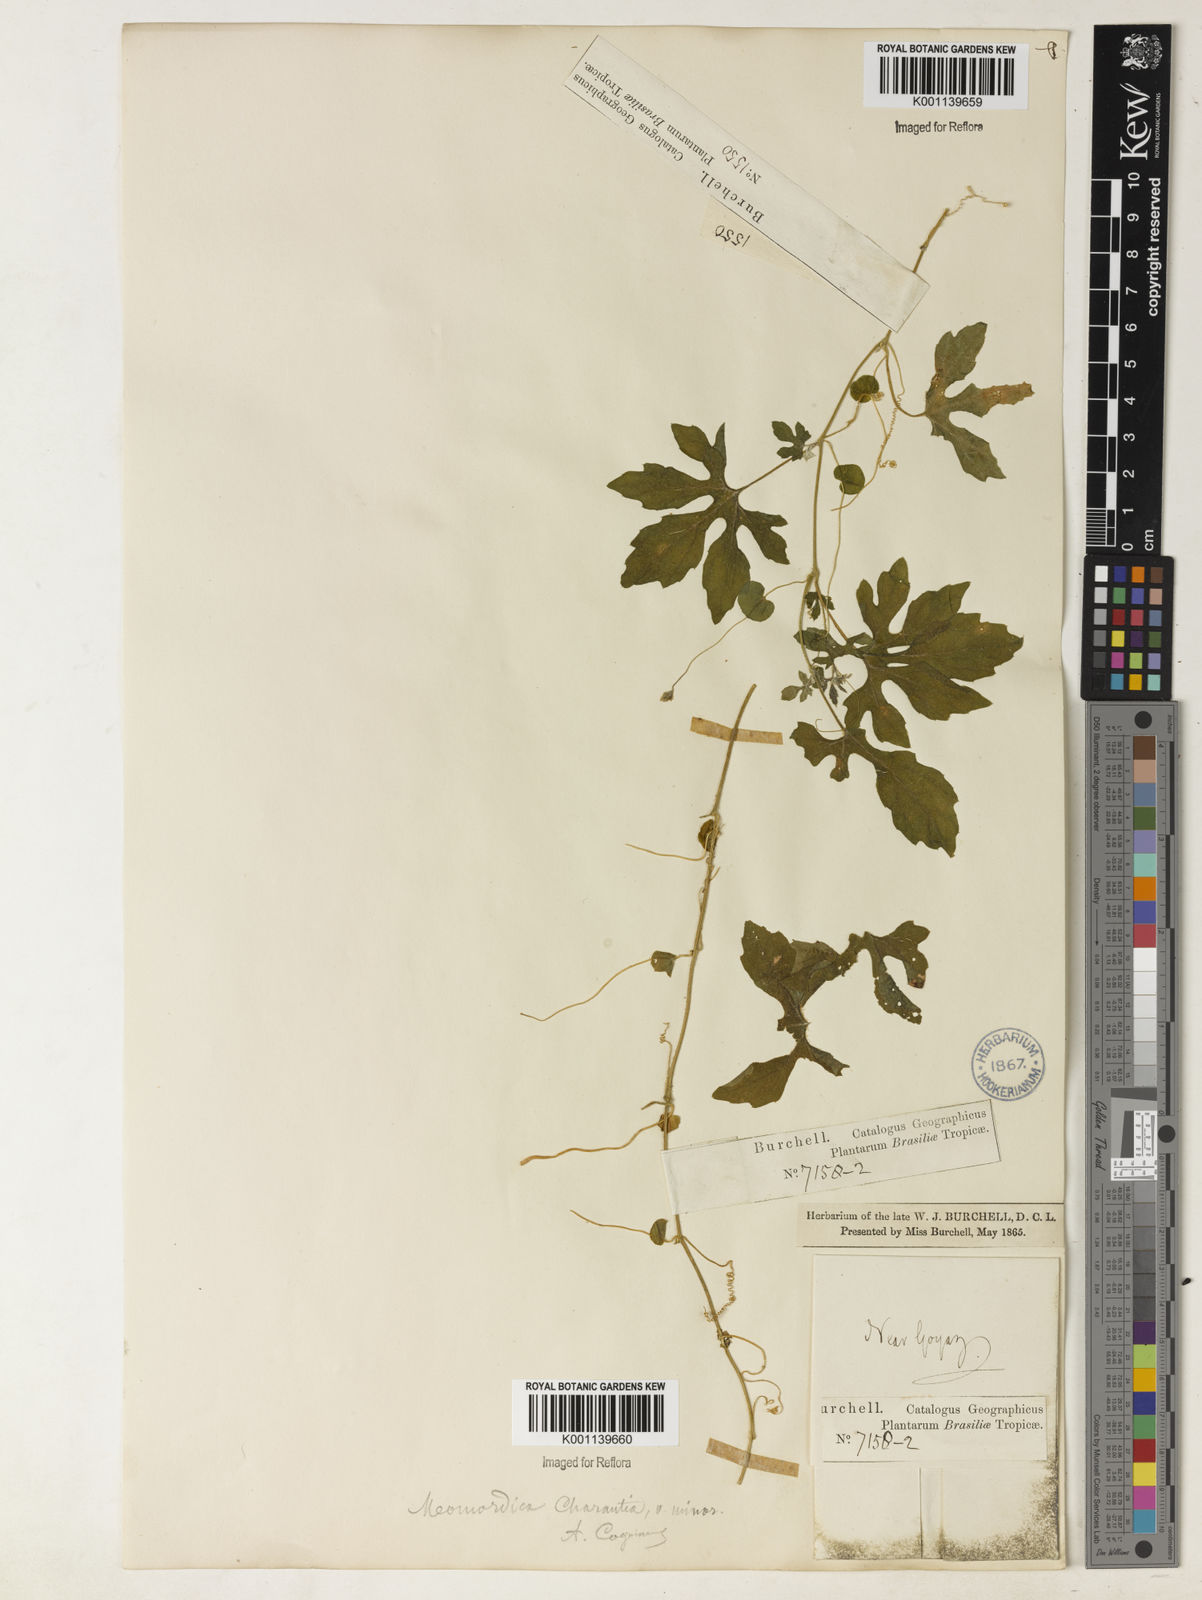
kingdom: Plantae
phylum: Tracheophyta
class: Magnoliopsida
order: Cucurbitales
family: Cucurbitaceae
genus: Momordica
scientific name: Momordica charantia
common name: Balsampear
